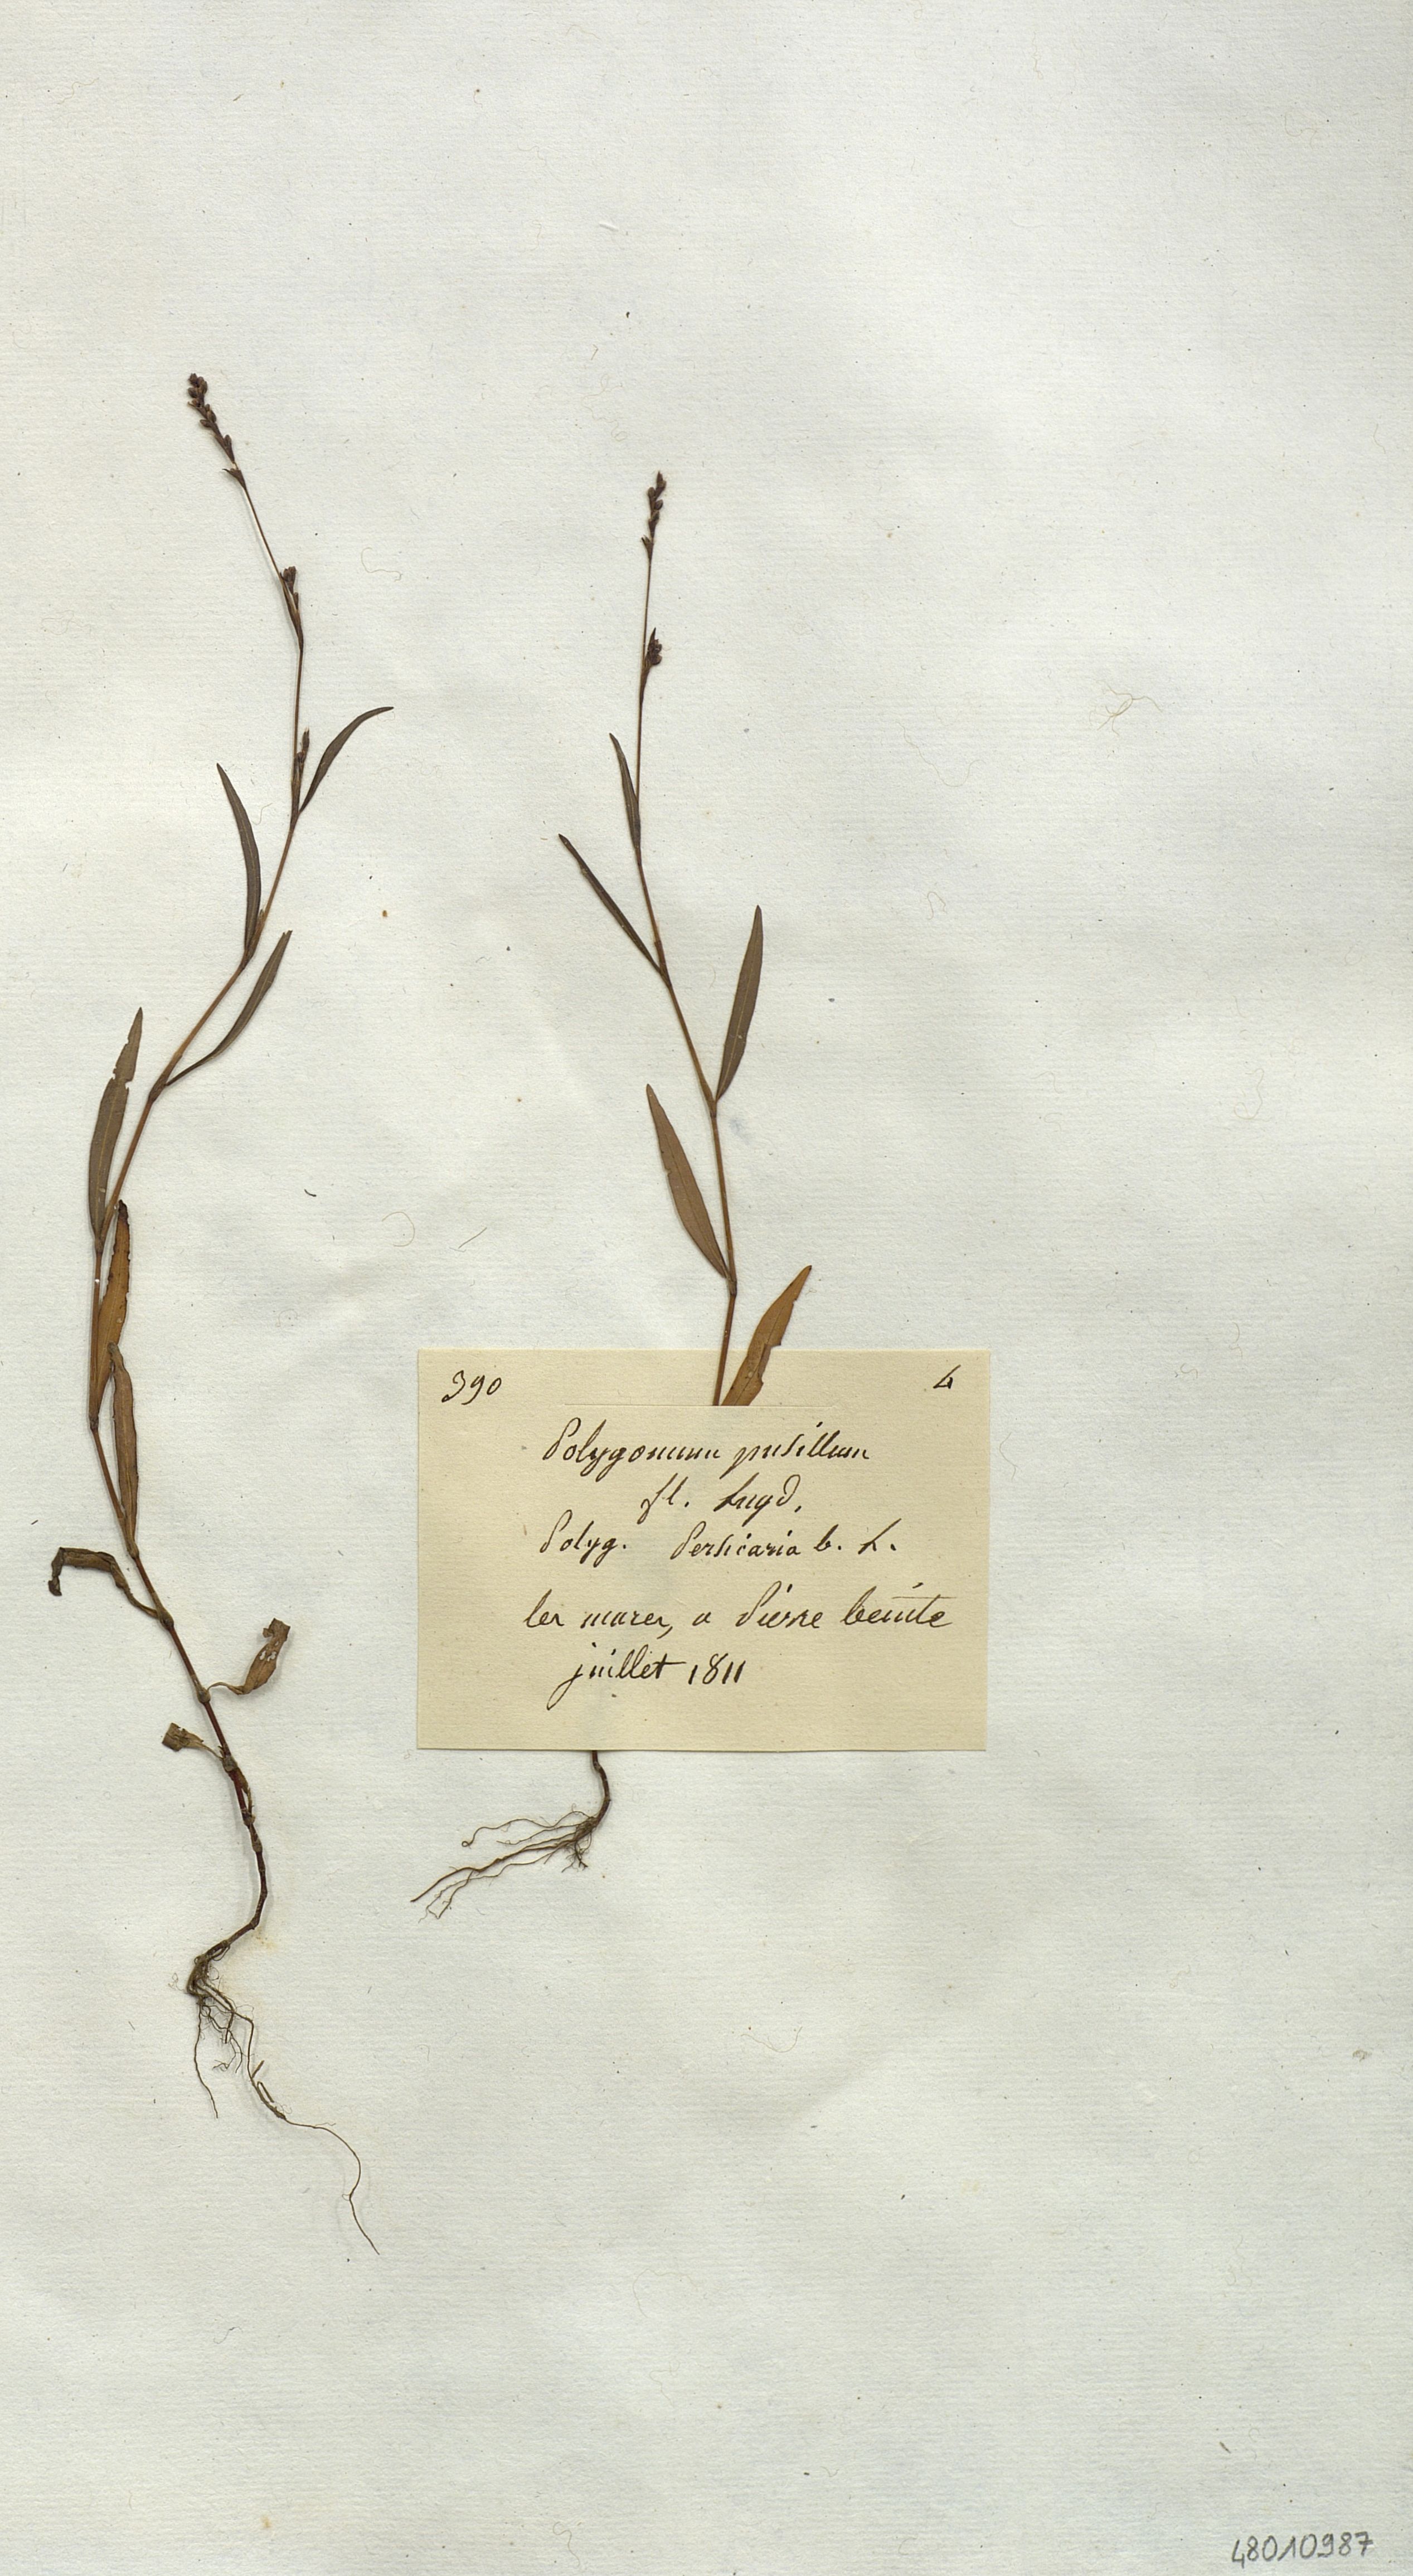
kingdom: Plantae
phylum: Tracheophyta
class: Magnoliopsida
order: Caryophyllales
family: Polygonaceae
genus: Polygonum
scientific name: Polygonum pusillum
